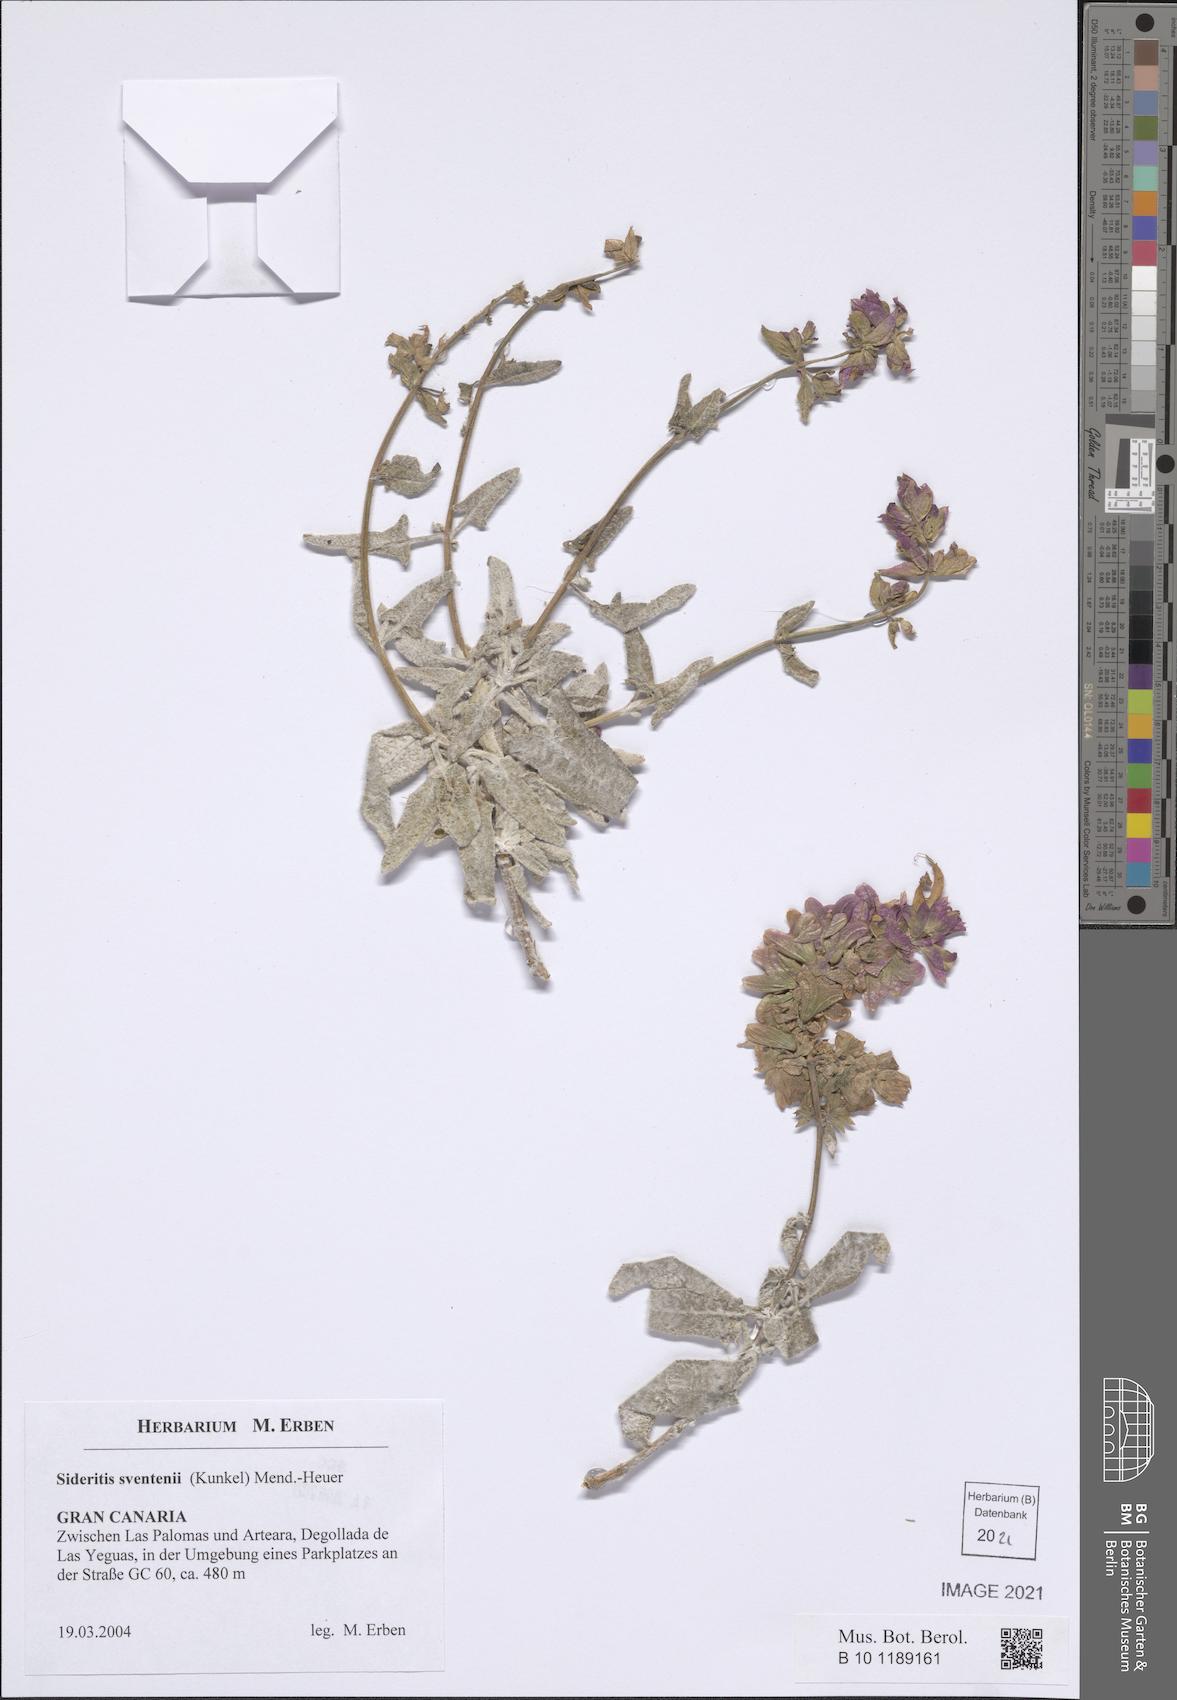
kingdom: Plantae
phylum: Tracheophyta
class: Magnoliopsida
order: Lamiales
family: Lamiaceae
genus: Sideritis
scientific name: Sideritis sventenii
